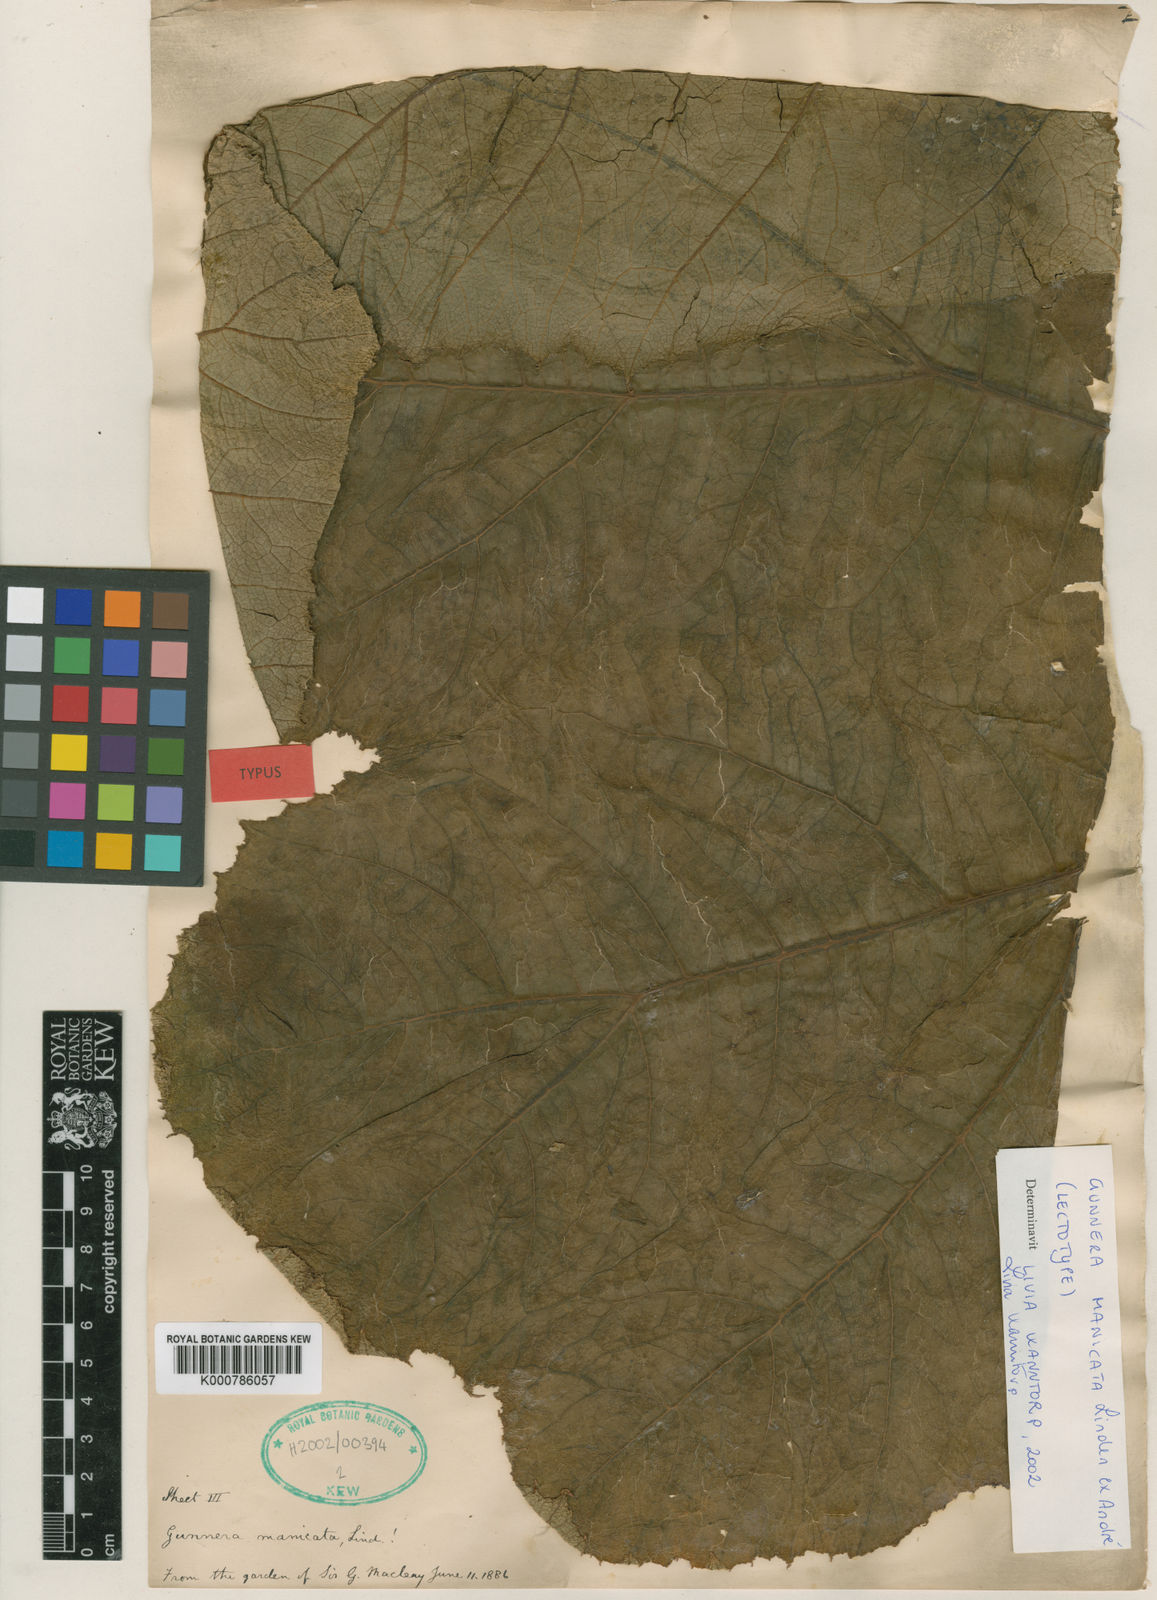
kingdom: Plantae
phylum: Tracheophyta
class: Magnoliopsida
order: Gunnerales
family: Gunneraceae
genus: Gunnera
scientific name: Gunnera manicata
